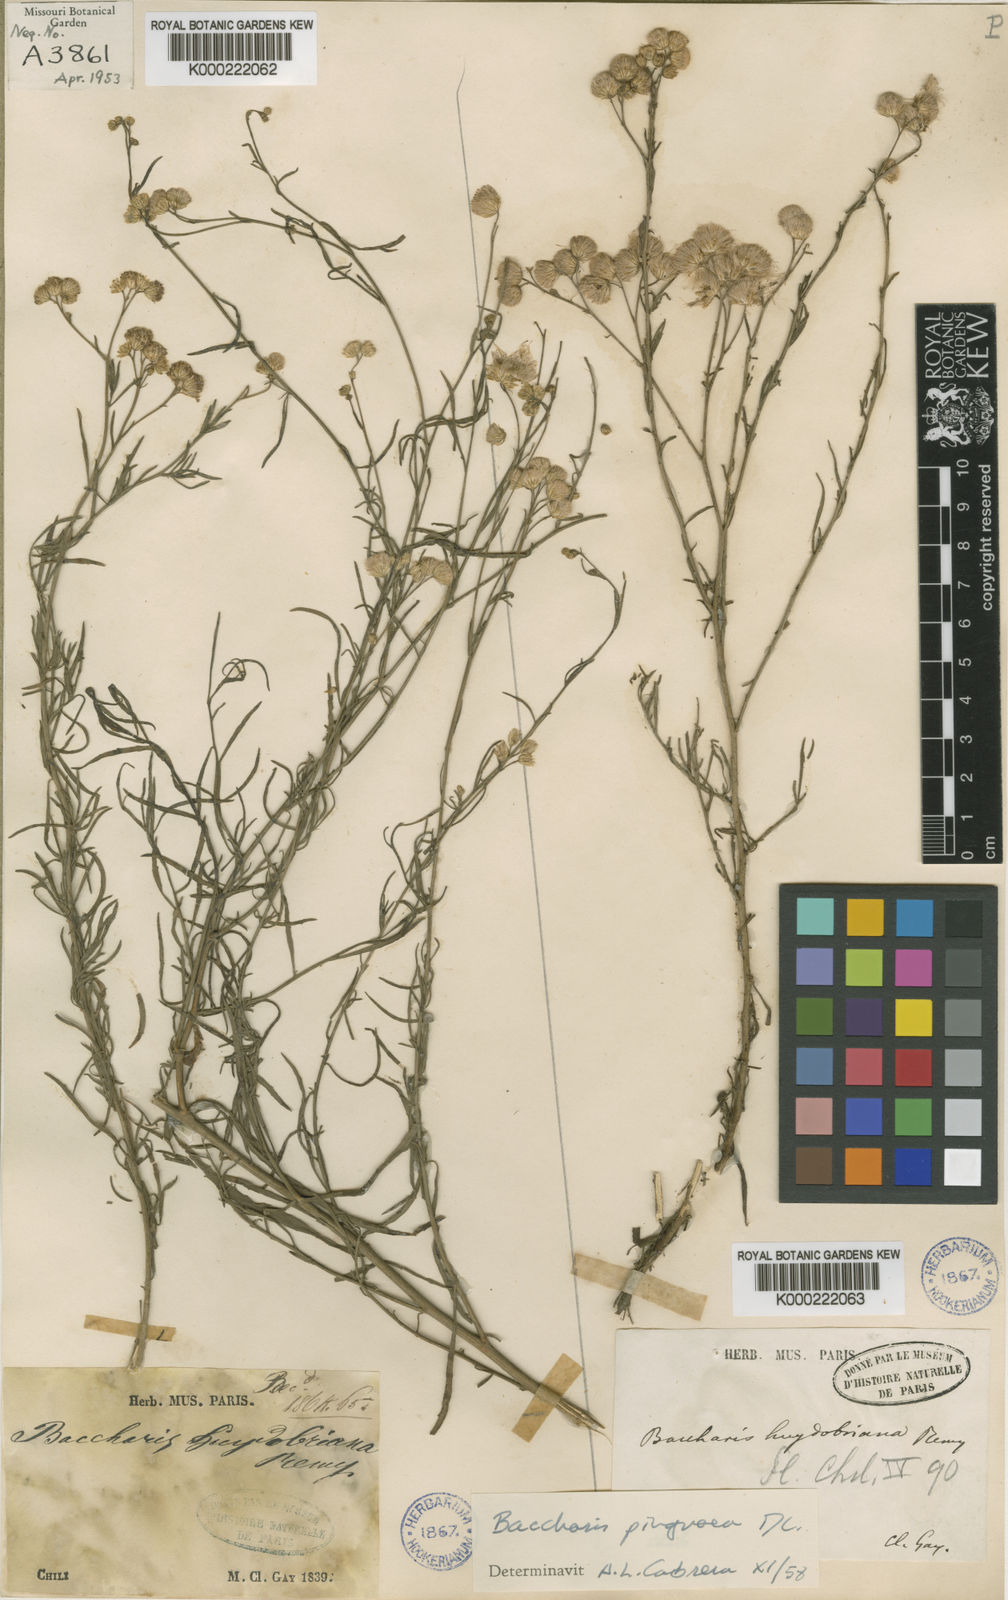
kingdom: Plantae
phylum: Tracheophyta
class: Magnoliopsida
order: Asterales
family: Asteraceae
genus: Baccharis
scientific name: Baccharis glutinosa
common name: Saltmarsh baccharis
